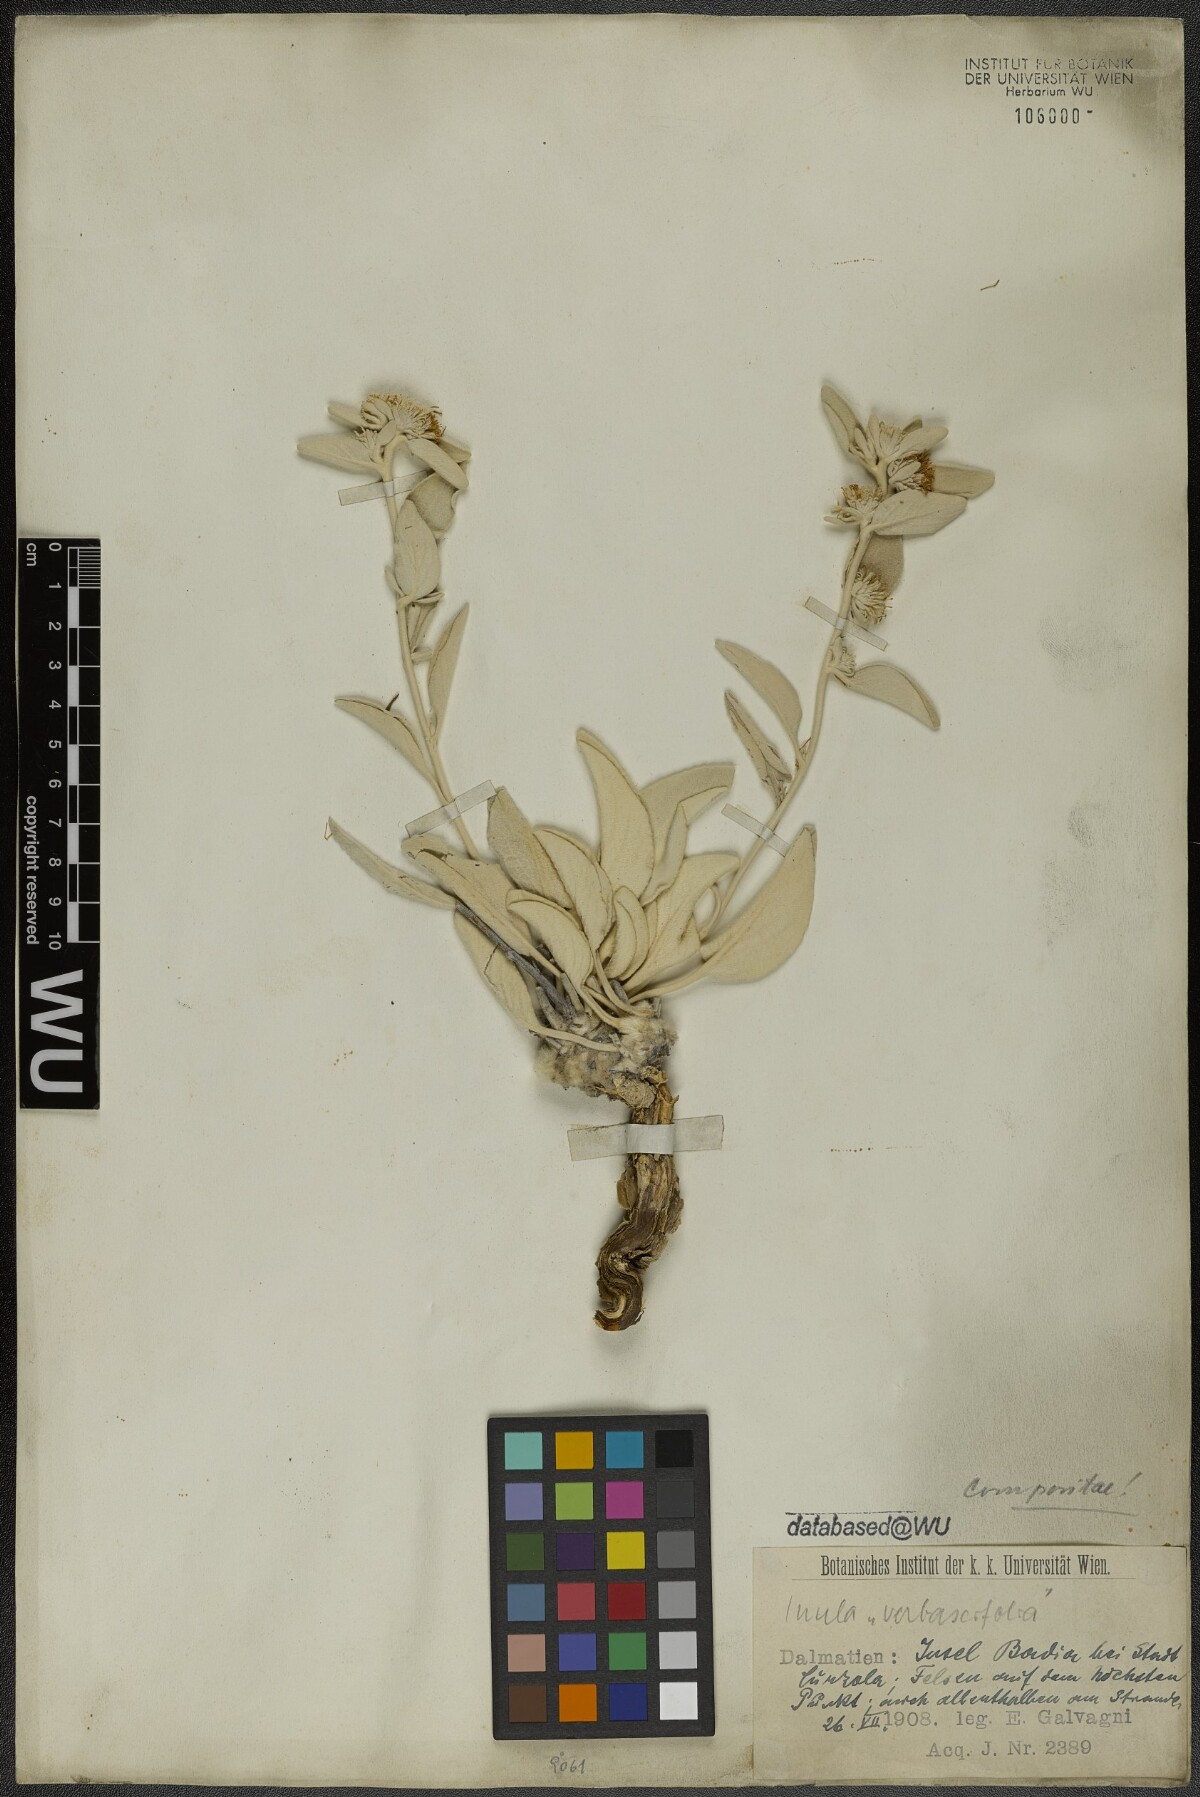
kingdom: Plantae
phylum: Tracheophyta
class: Magnoliopsida
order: Asterales
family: Asteraceae
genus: Pentanema
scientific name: Pentanema verbascifolium
